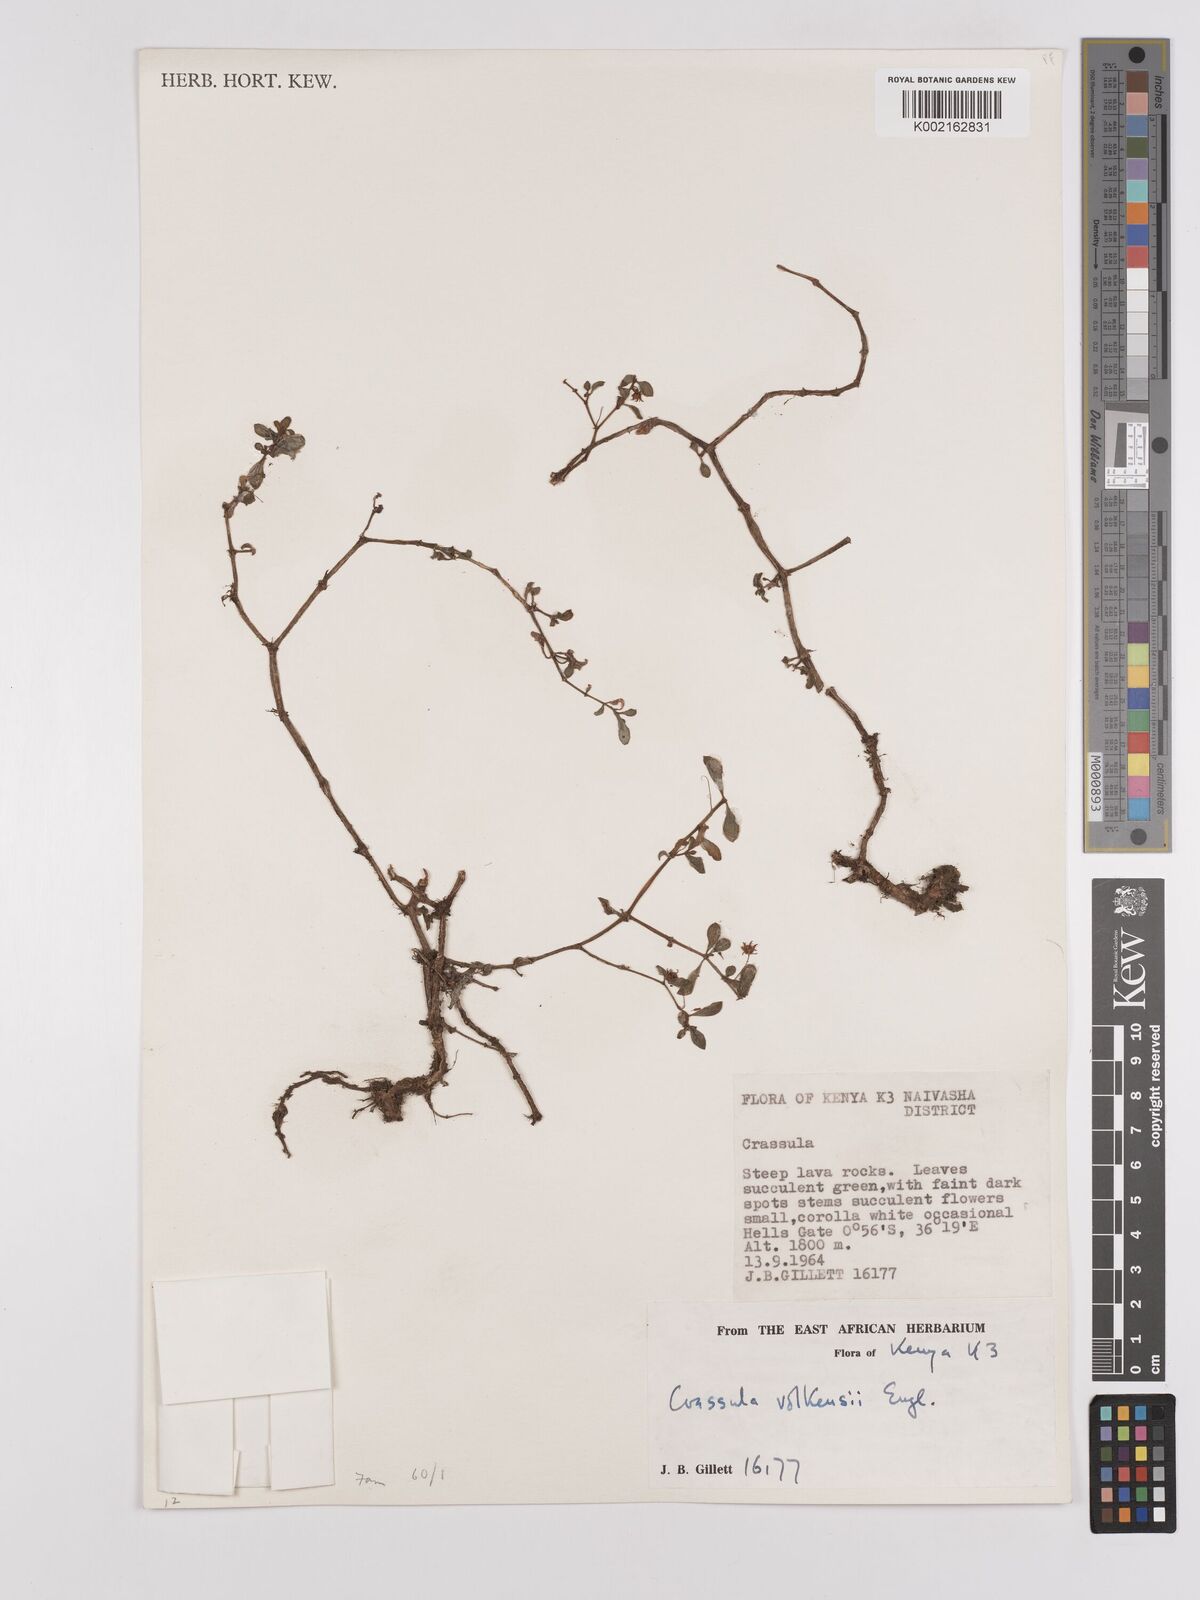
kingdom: Plantae
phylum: Tracheophyta
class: Magnoliopsida
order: Saxifragales
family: Crassulaceae
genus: Crassula
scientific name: Crassula volkensii
